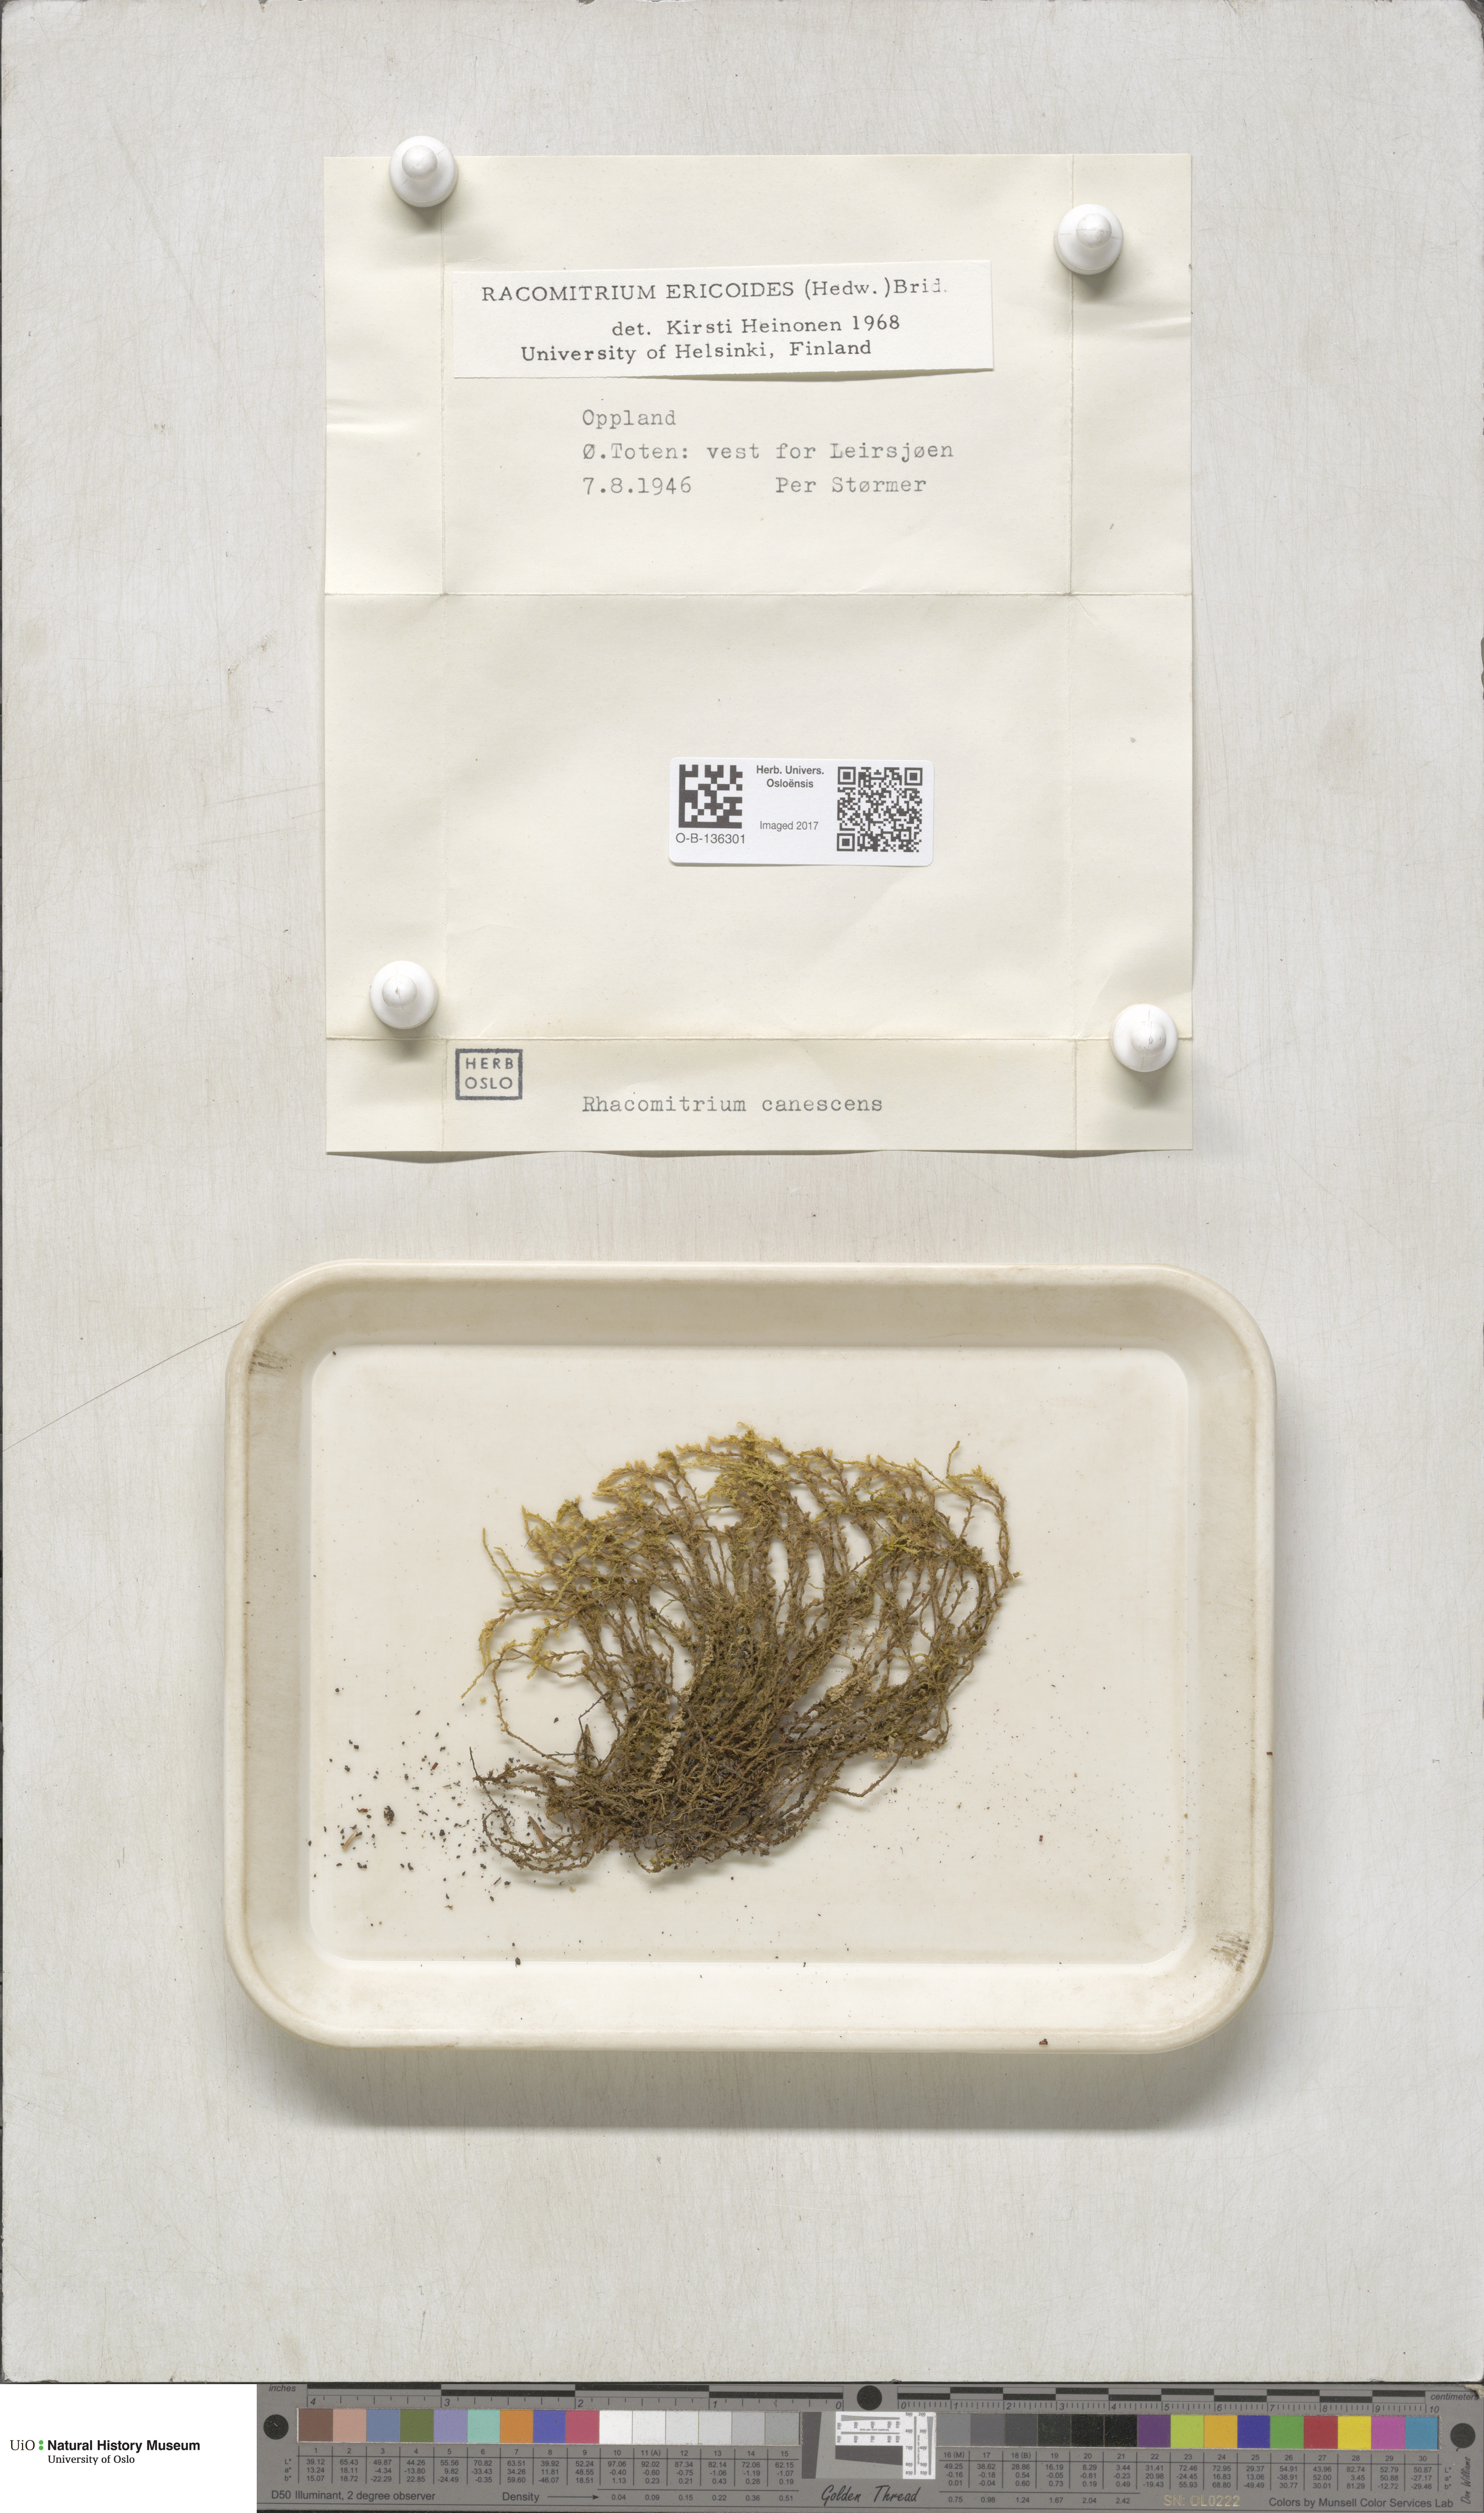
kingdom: Plantae
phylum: Bryophyta
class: Bryopsida
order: Grimmiales
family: Grimmiaceae
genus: Niphotrichum
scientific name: Niphotrichum ericoides
